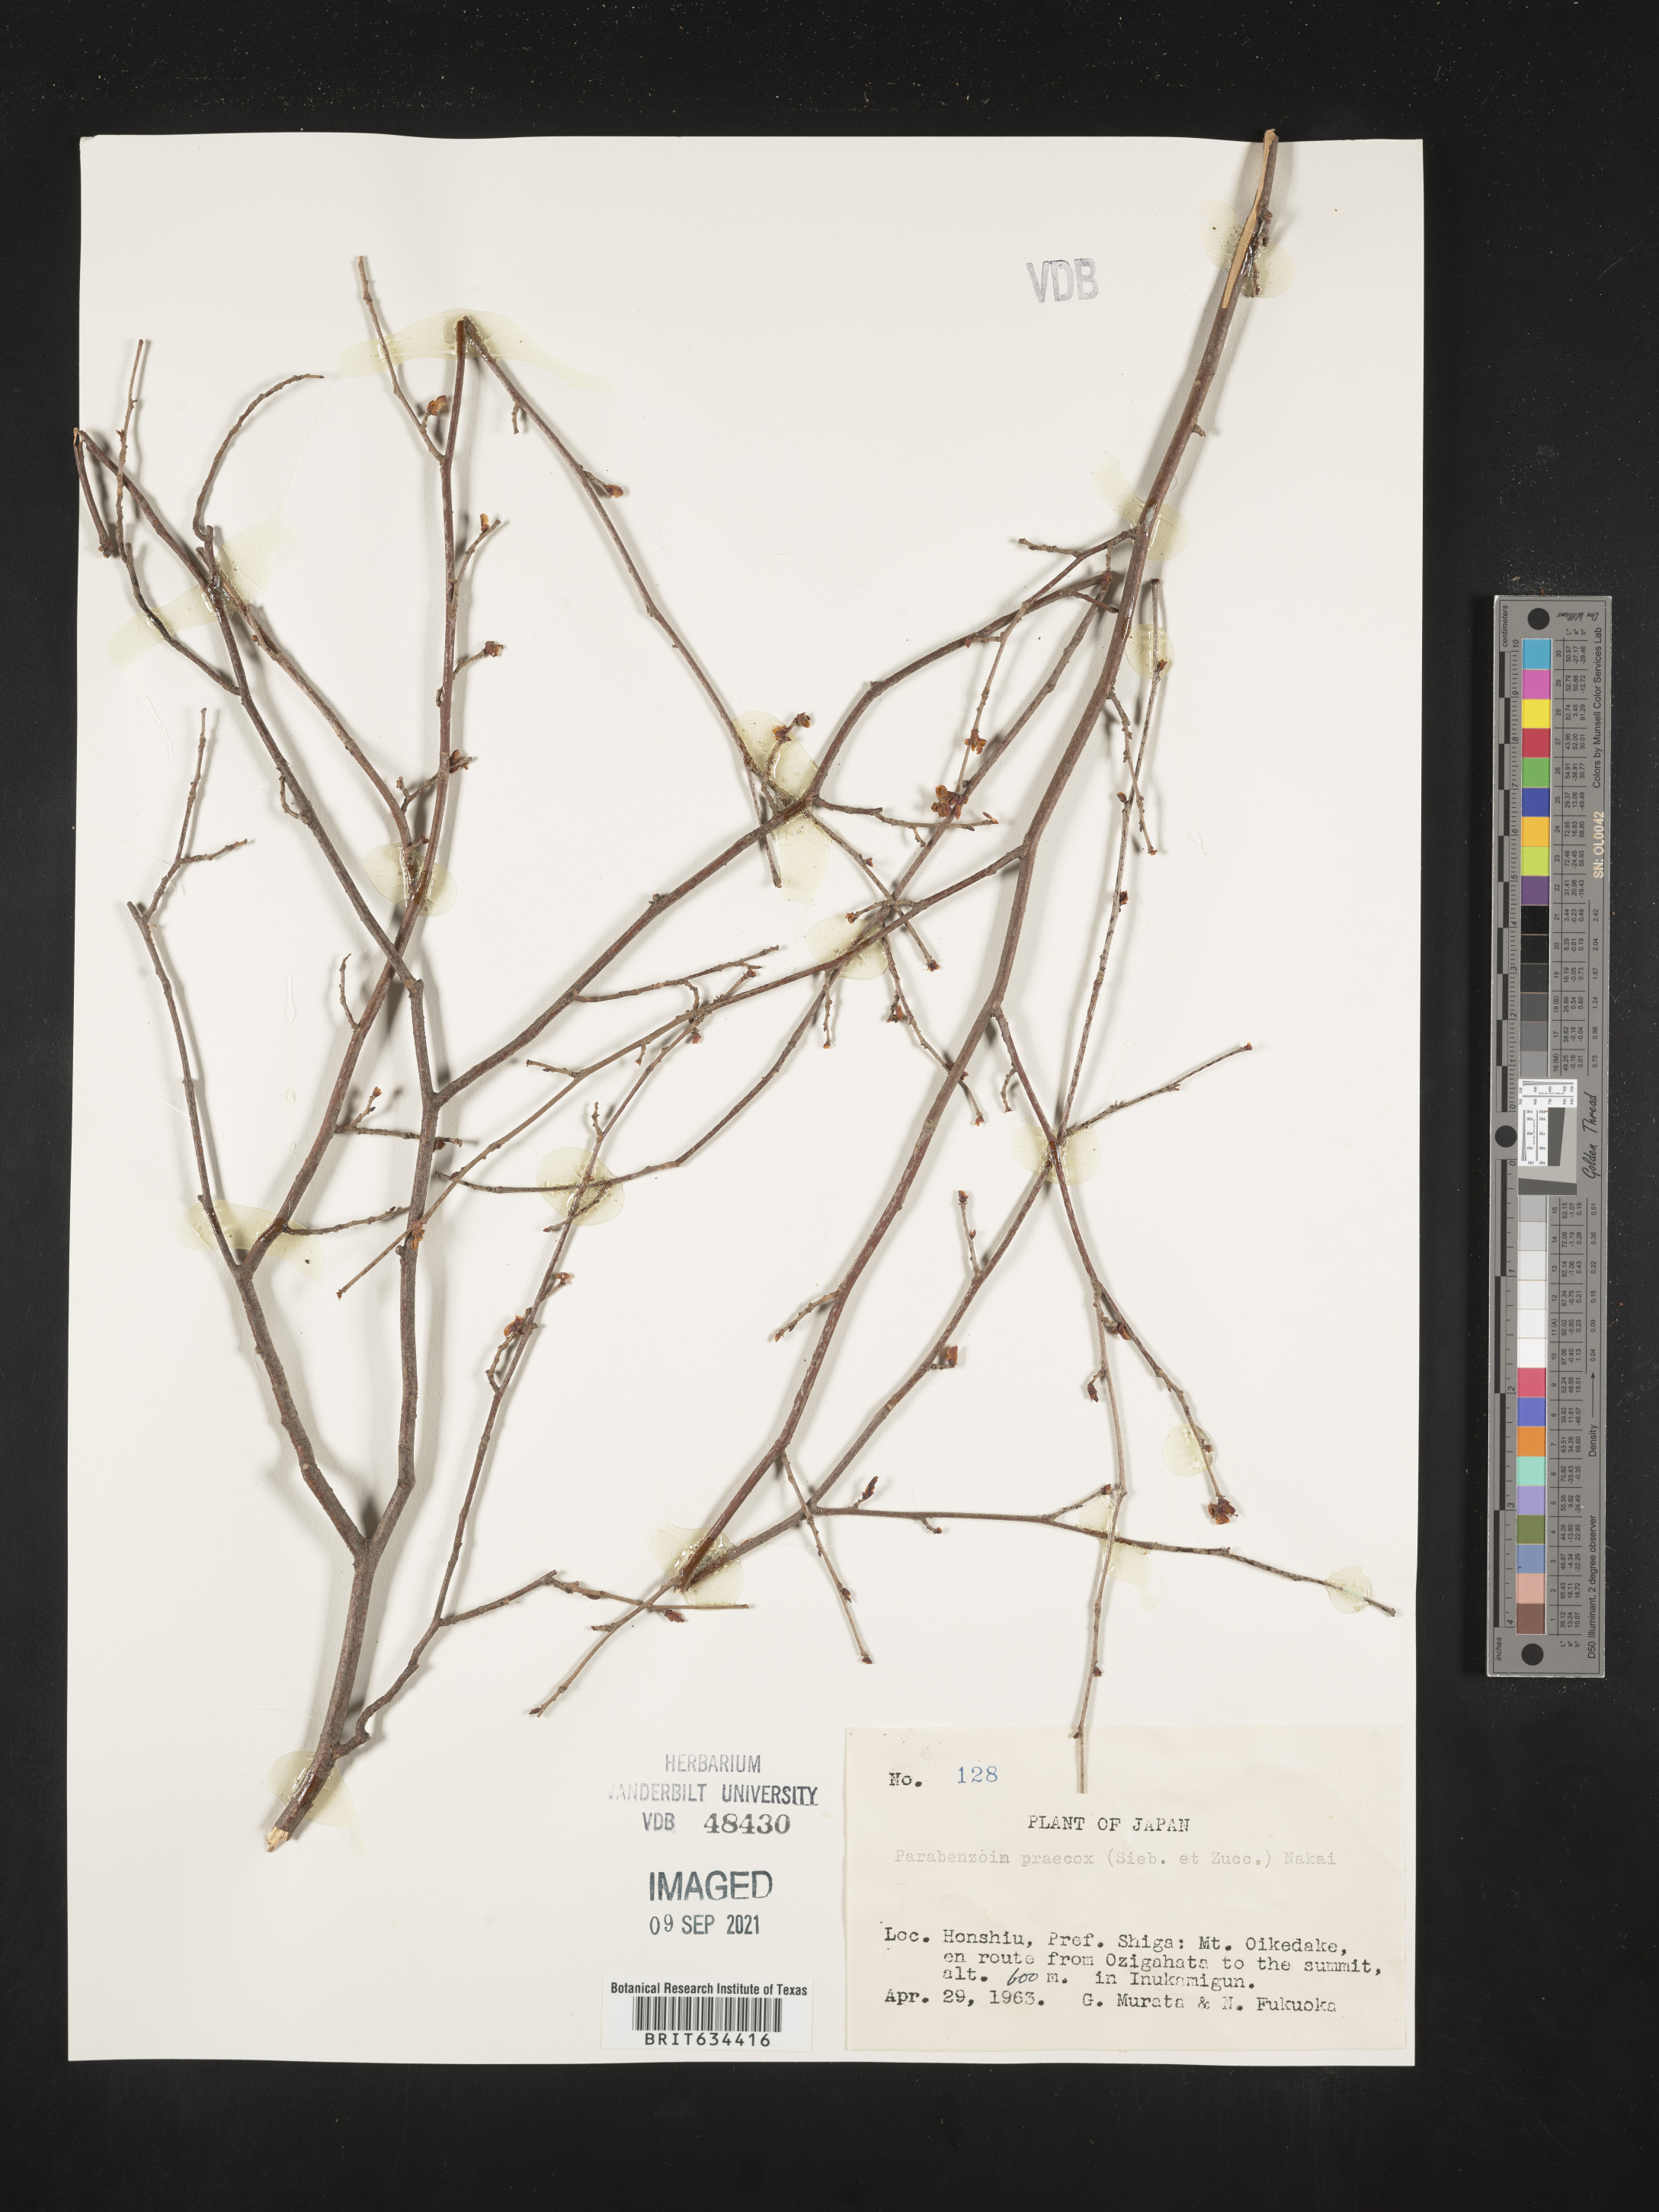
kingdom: Plantae
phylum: Tracheophyta
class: Magnoliopsida
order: Laurales
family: Lauraceae
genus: Lindera
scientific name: Lindera praecox
